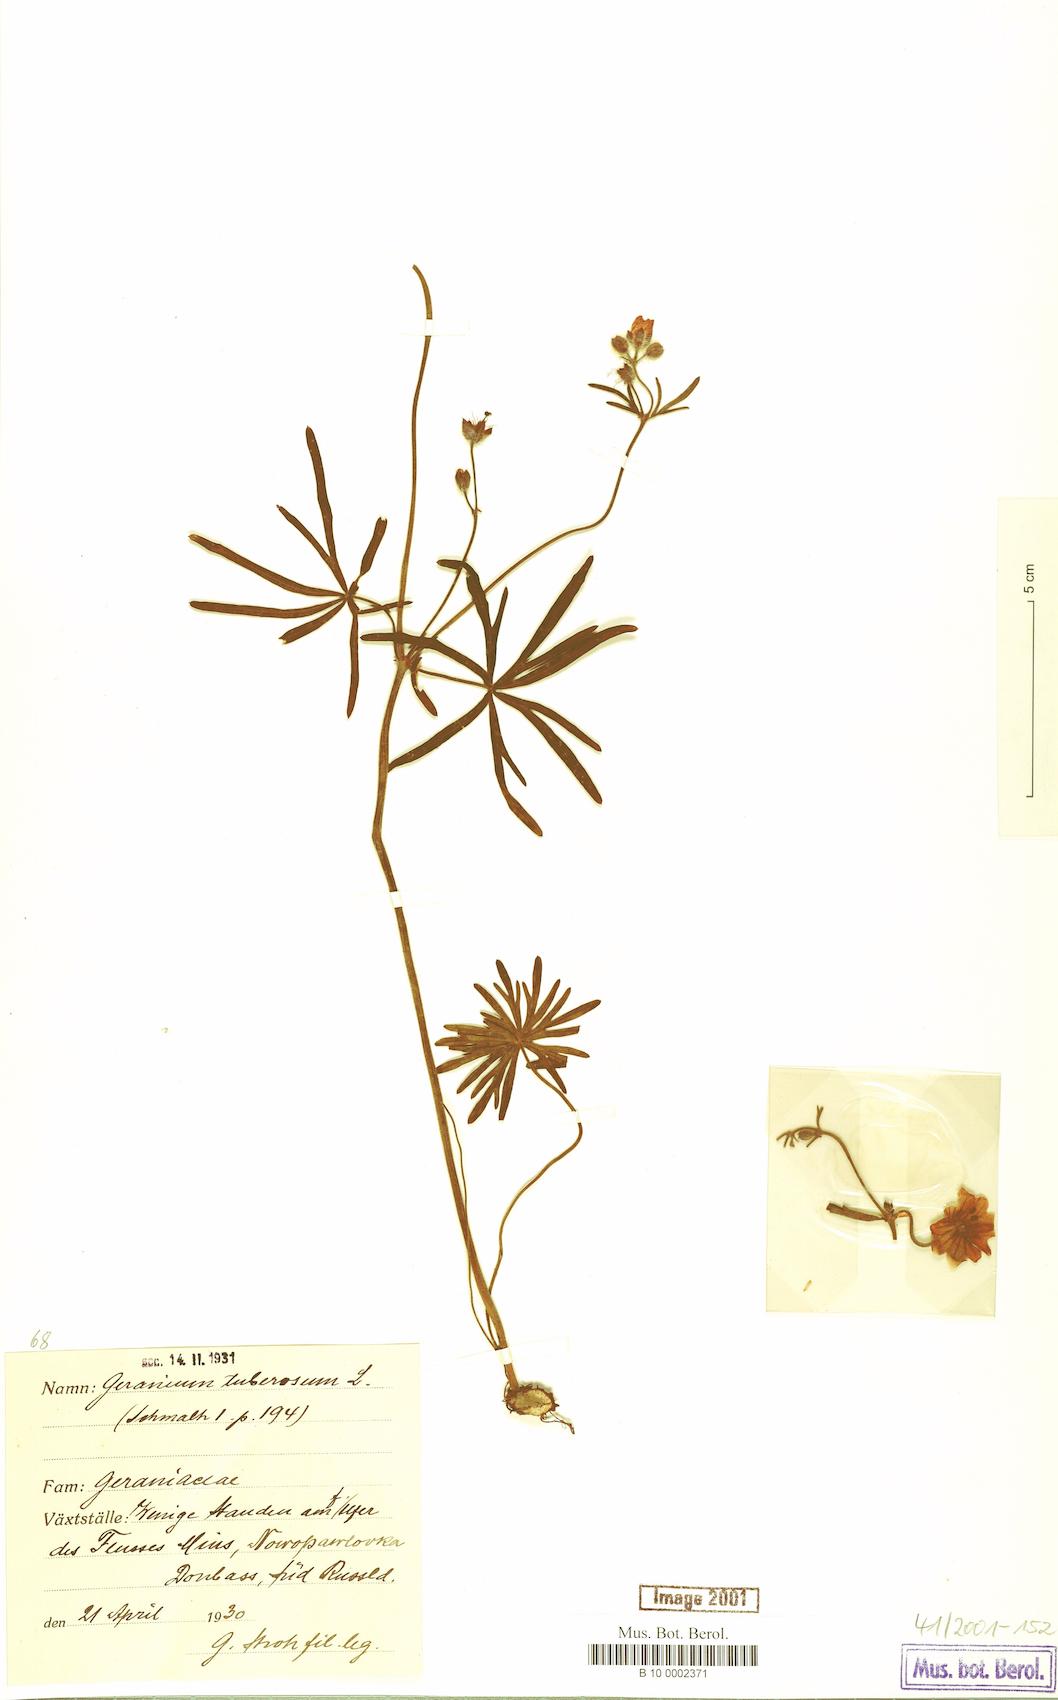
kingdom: Plantae
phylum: Tracheophyta
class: Magnoliopsida
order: Geraniales
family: Geraniaceae
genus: Geranium
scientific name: Geranium tuberosum
